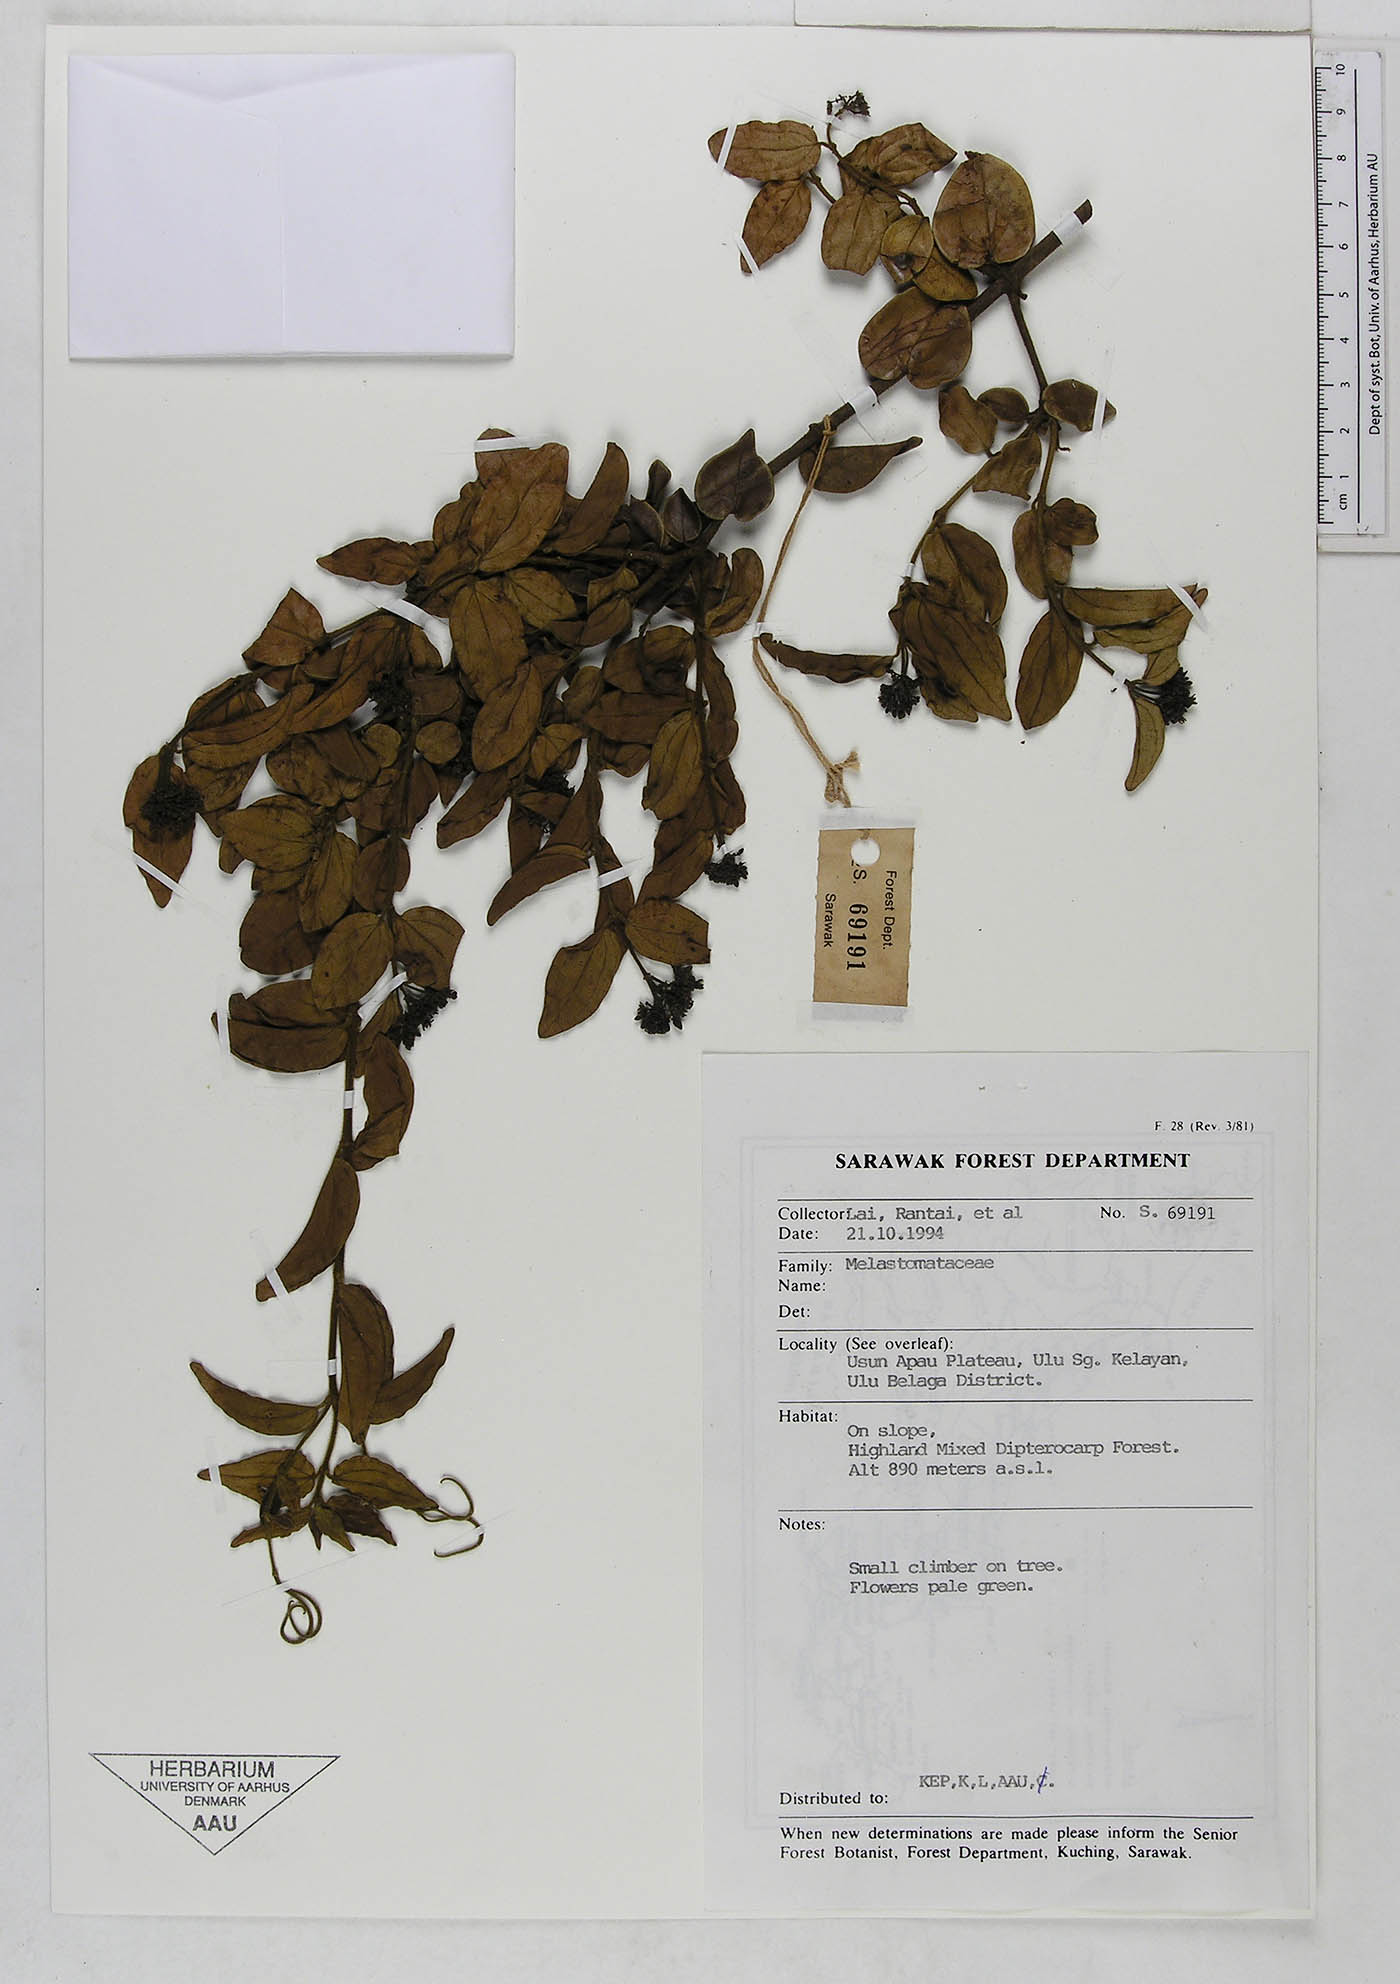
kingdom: Plantae
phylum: Tracheophyta
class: Magnoliopsida
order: Gentianales
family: Loganiaceae
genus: Strychnos
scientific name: Strychnos
